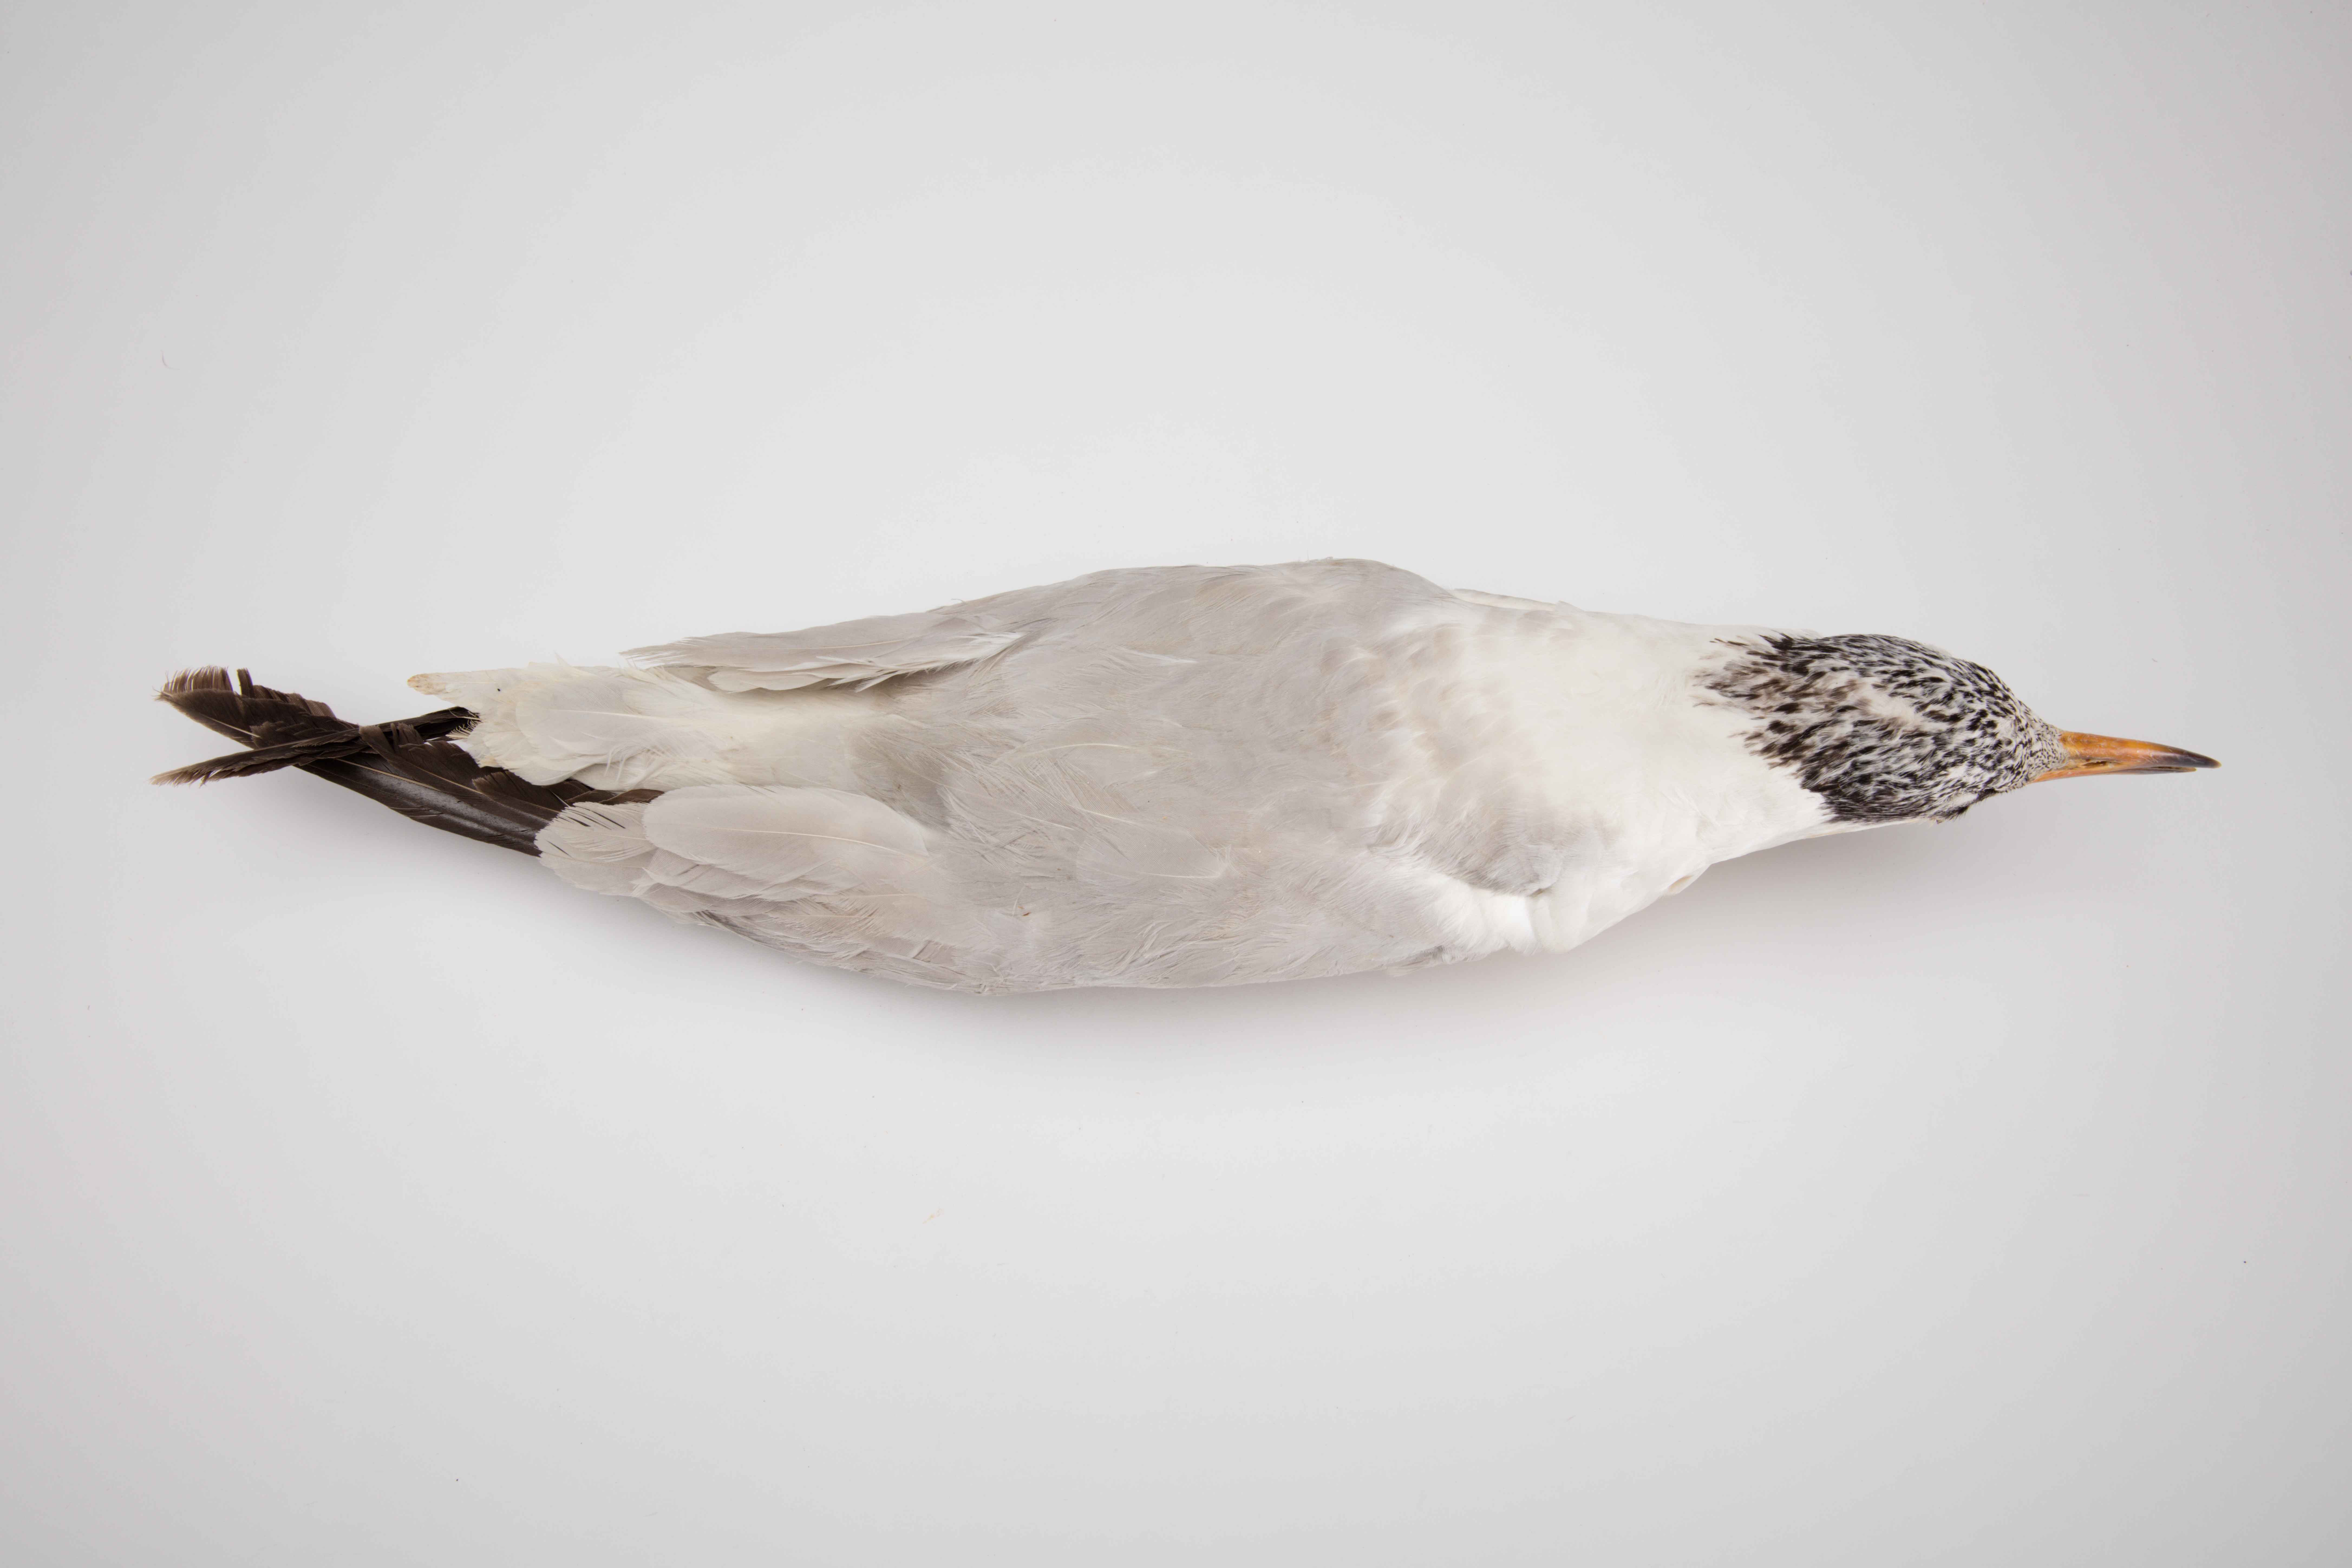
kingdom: Animalia
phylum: Chordata
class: Aves
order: Charadriiformes
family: Laridae
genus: Hydroprogne
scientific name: Hydroprogne caspia
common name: Caspian tern
